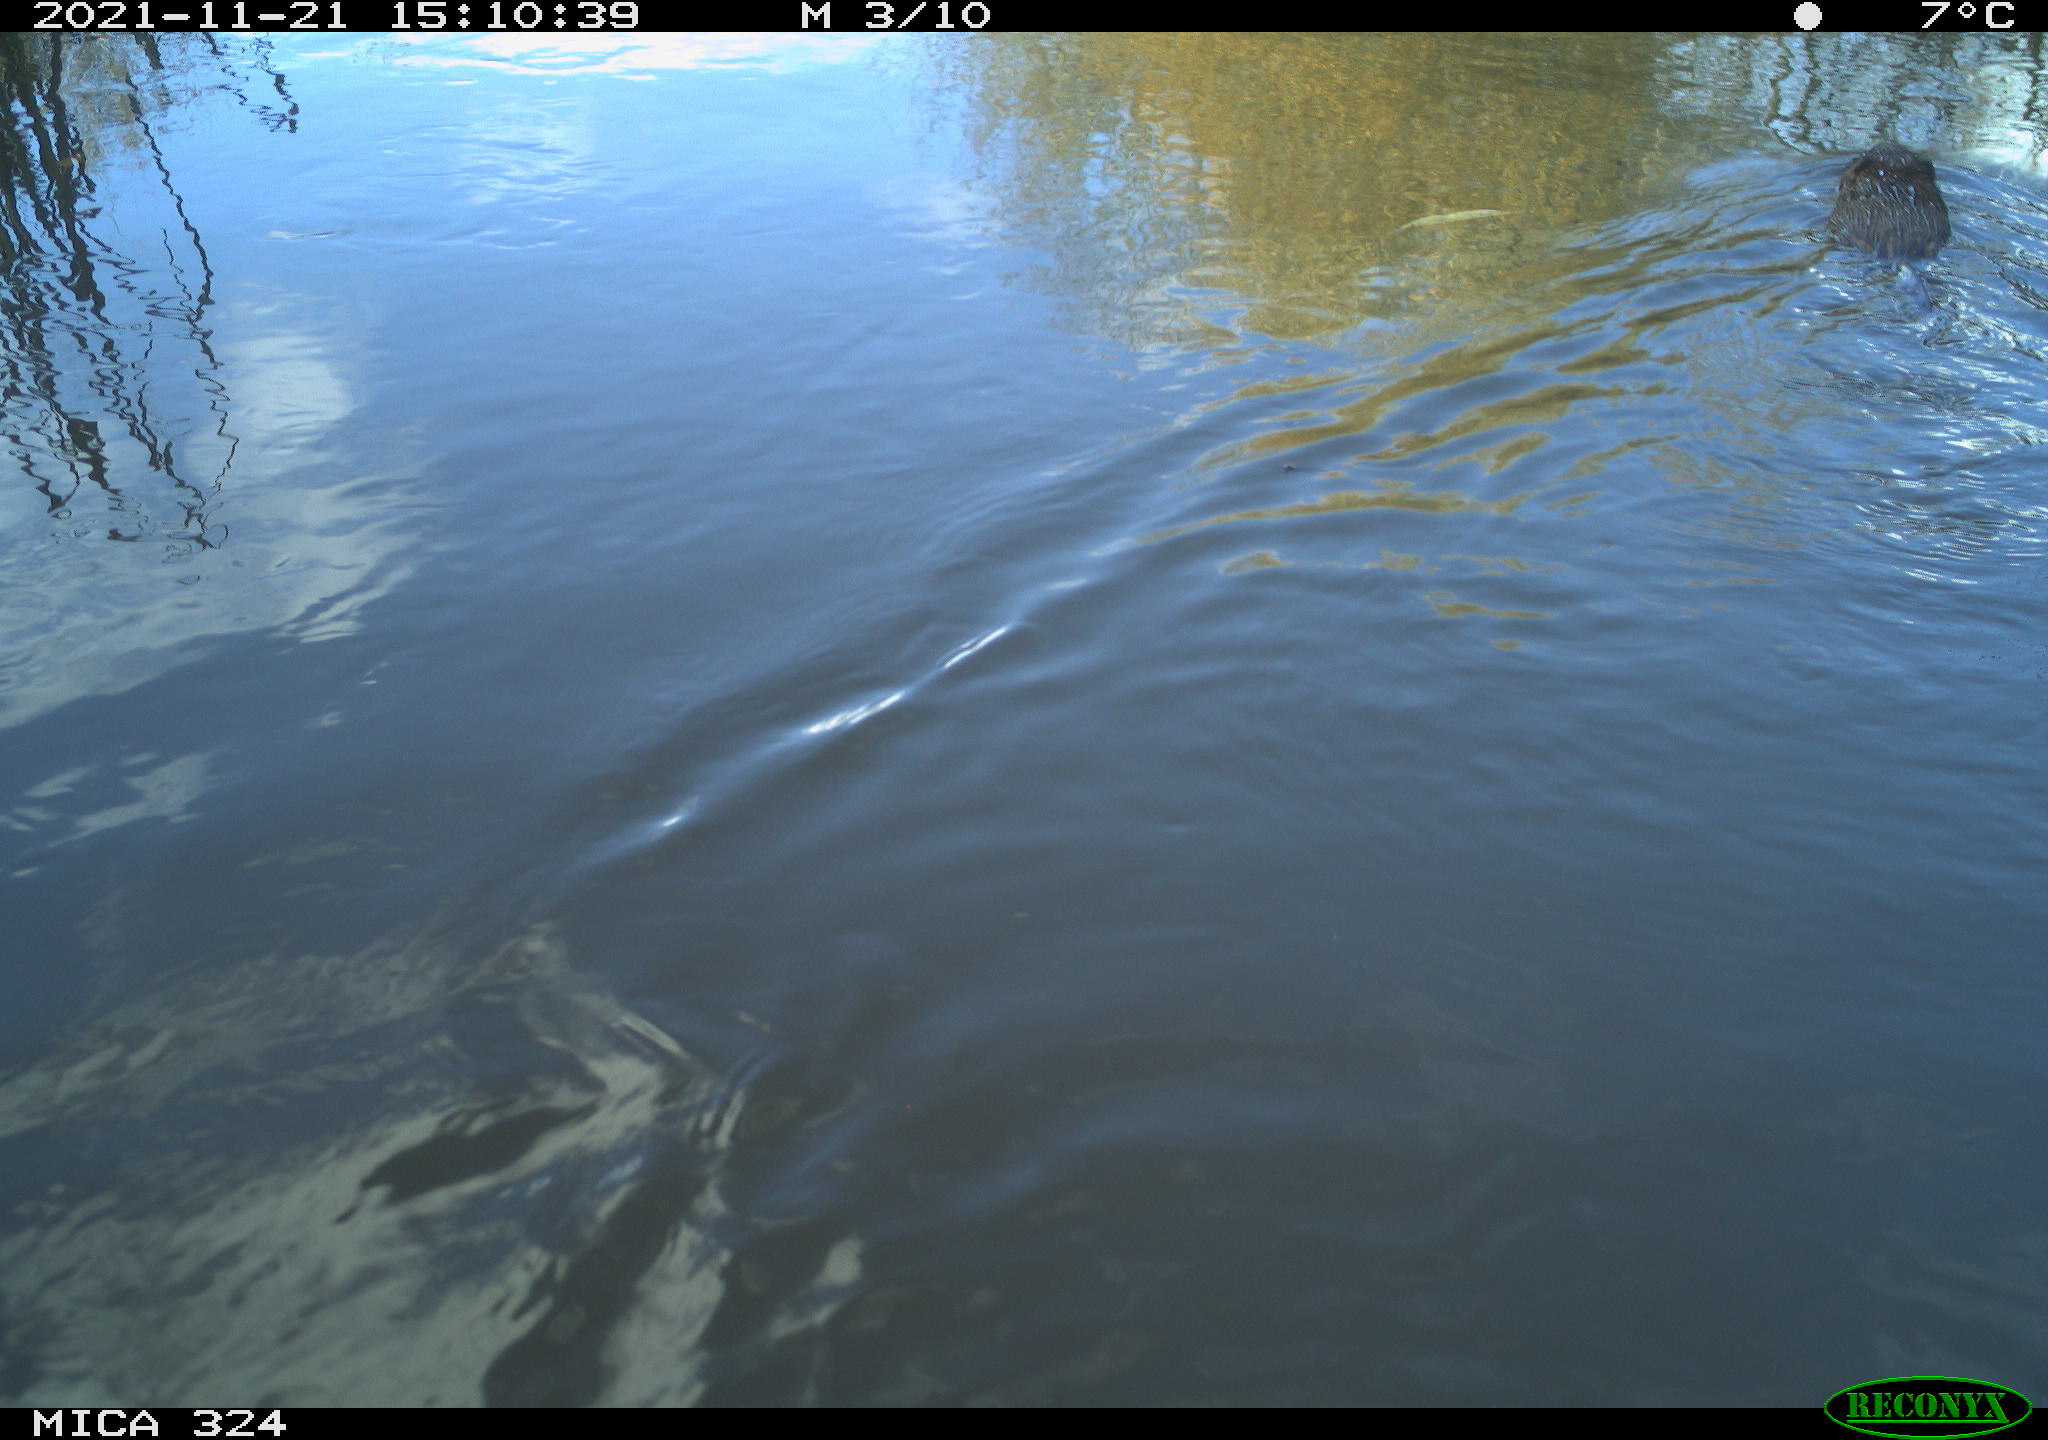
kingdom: Animalia
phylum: Chordata
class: Mammalia
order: Rodentia
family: Cricetidae
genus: Ondatra
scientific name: Ondatra zibethicus
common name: Muskrat
